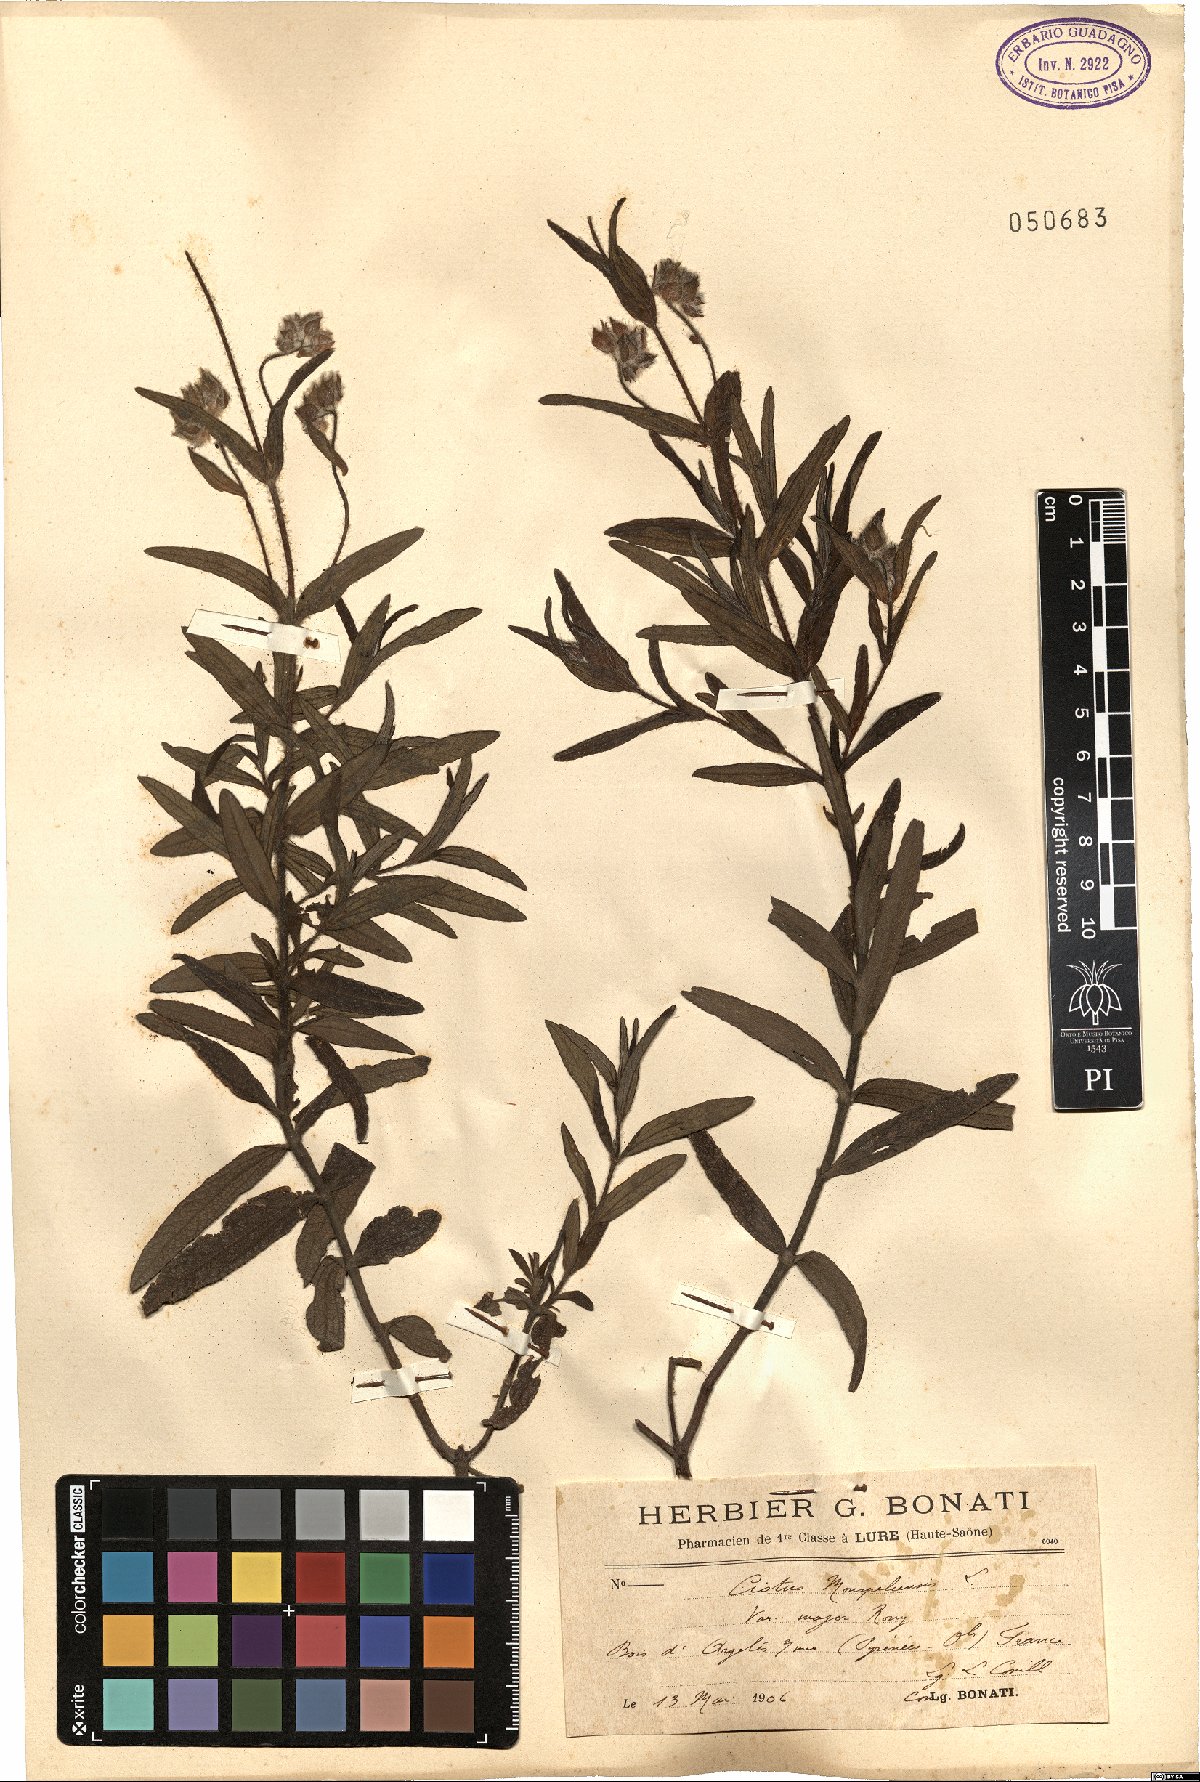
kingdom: Plantae
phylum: Tracheophyta
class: Magnoliopsida
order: Malvales
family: Cistaceae
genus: Cistus
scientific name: Cistus monspeliensis
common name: Montpelier cistus
